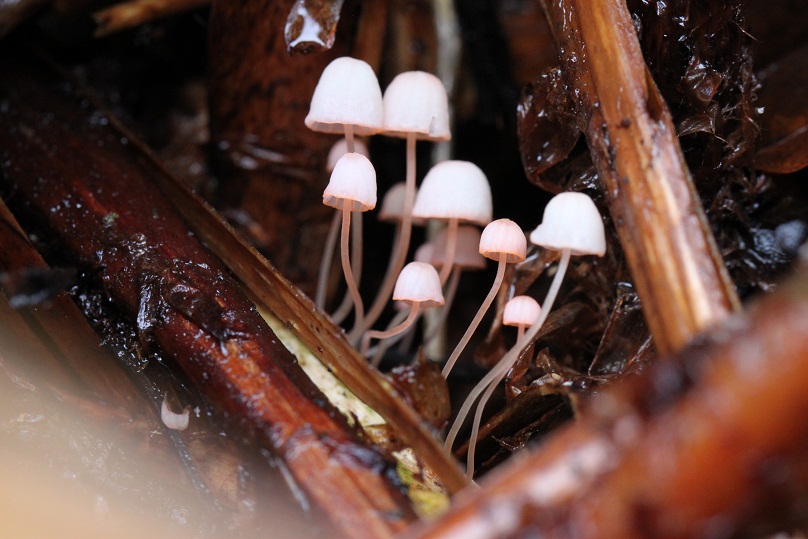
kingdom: Fungi
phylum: Basidiomycota
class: Agaricomycetes
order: Agaricales
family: Mycenaceae
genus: Mycena
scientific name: Mycena pterigena
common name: bregne-huesvamp
